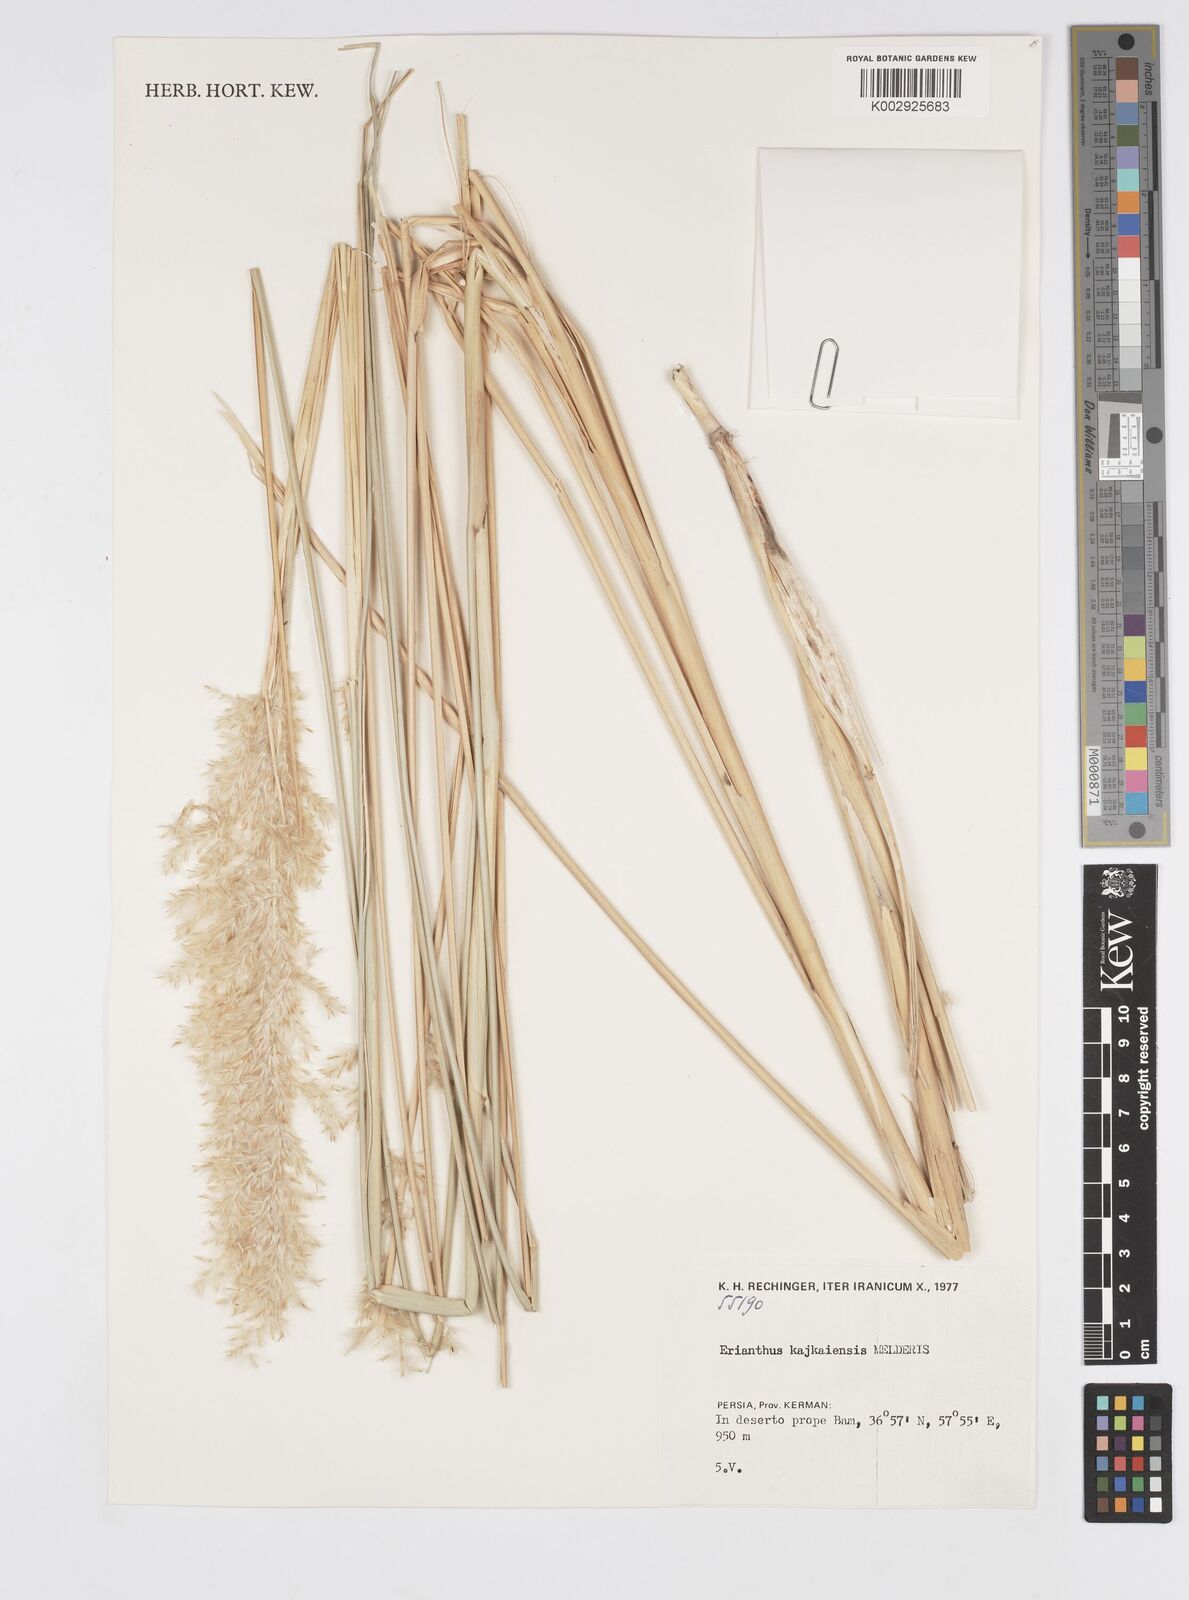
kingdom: Plantae
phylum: Tracheophyta
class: Liliopsida
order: Poales
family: Poaceae
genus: Saccharum
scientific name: Saccharum kajkaiense
